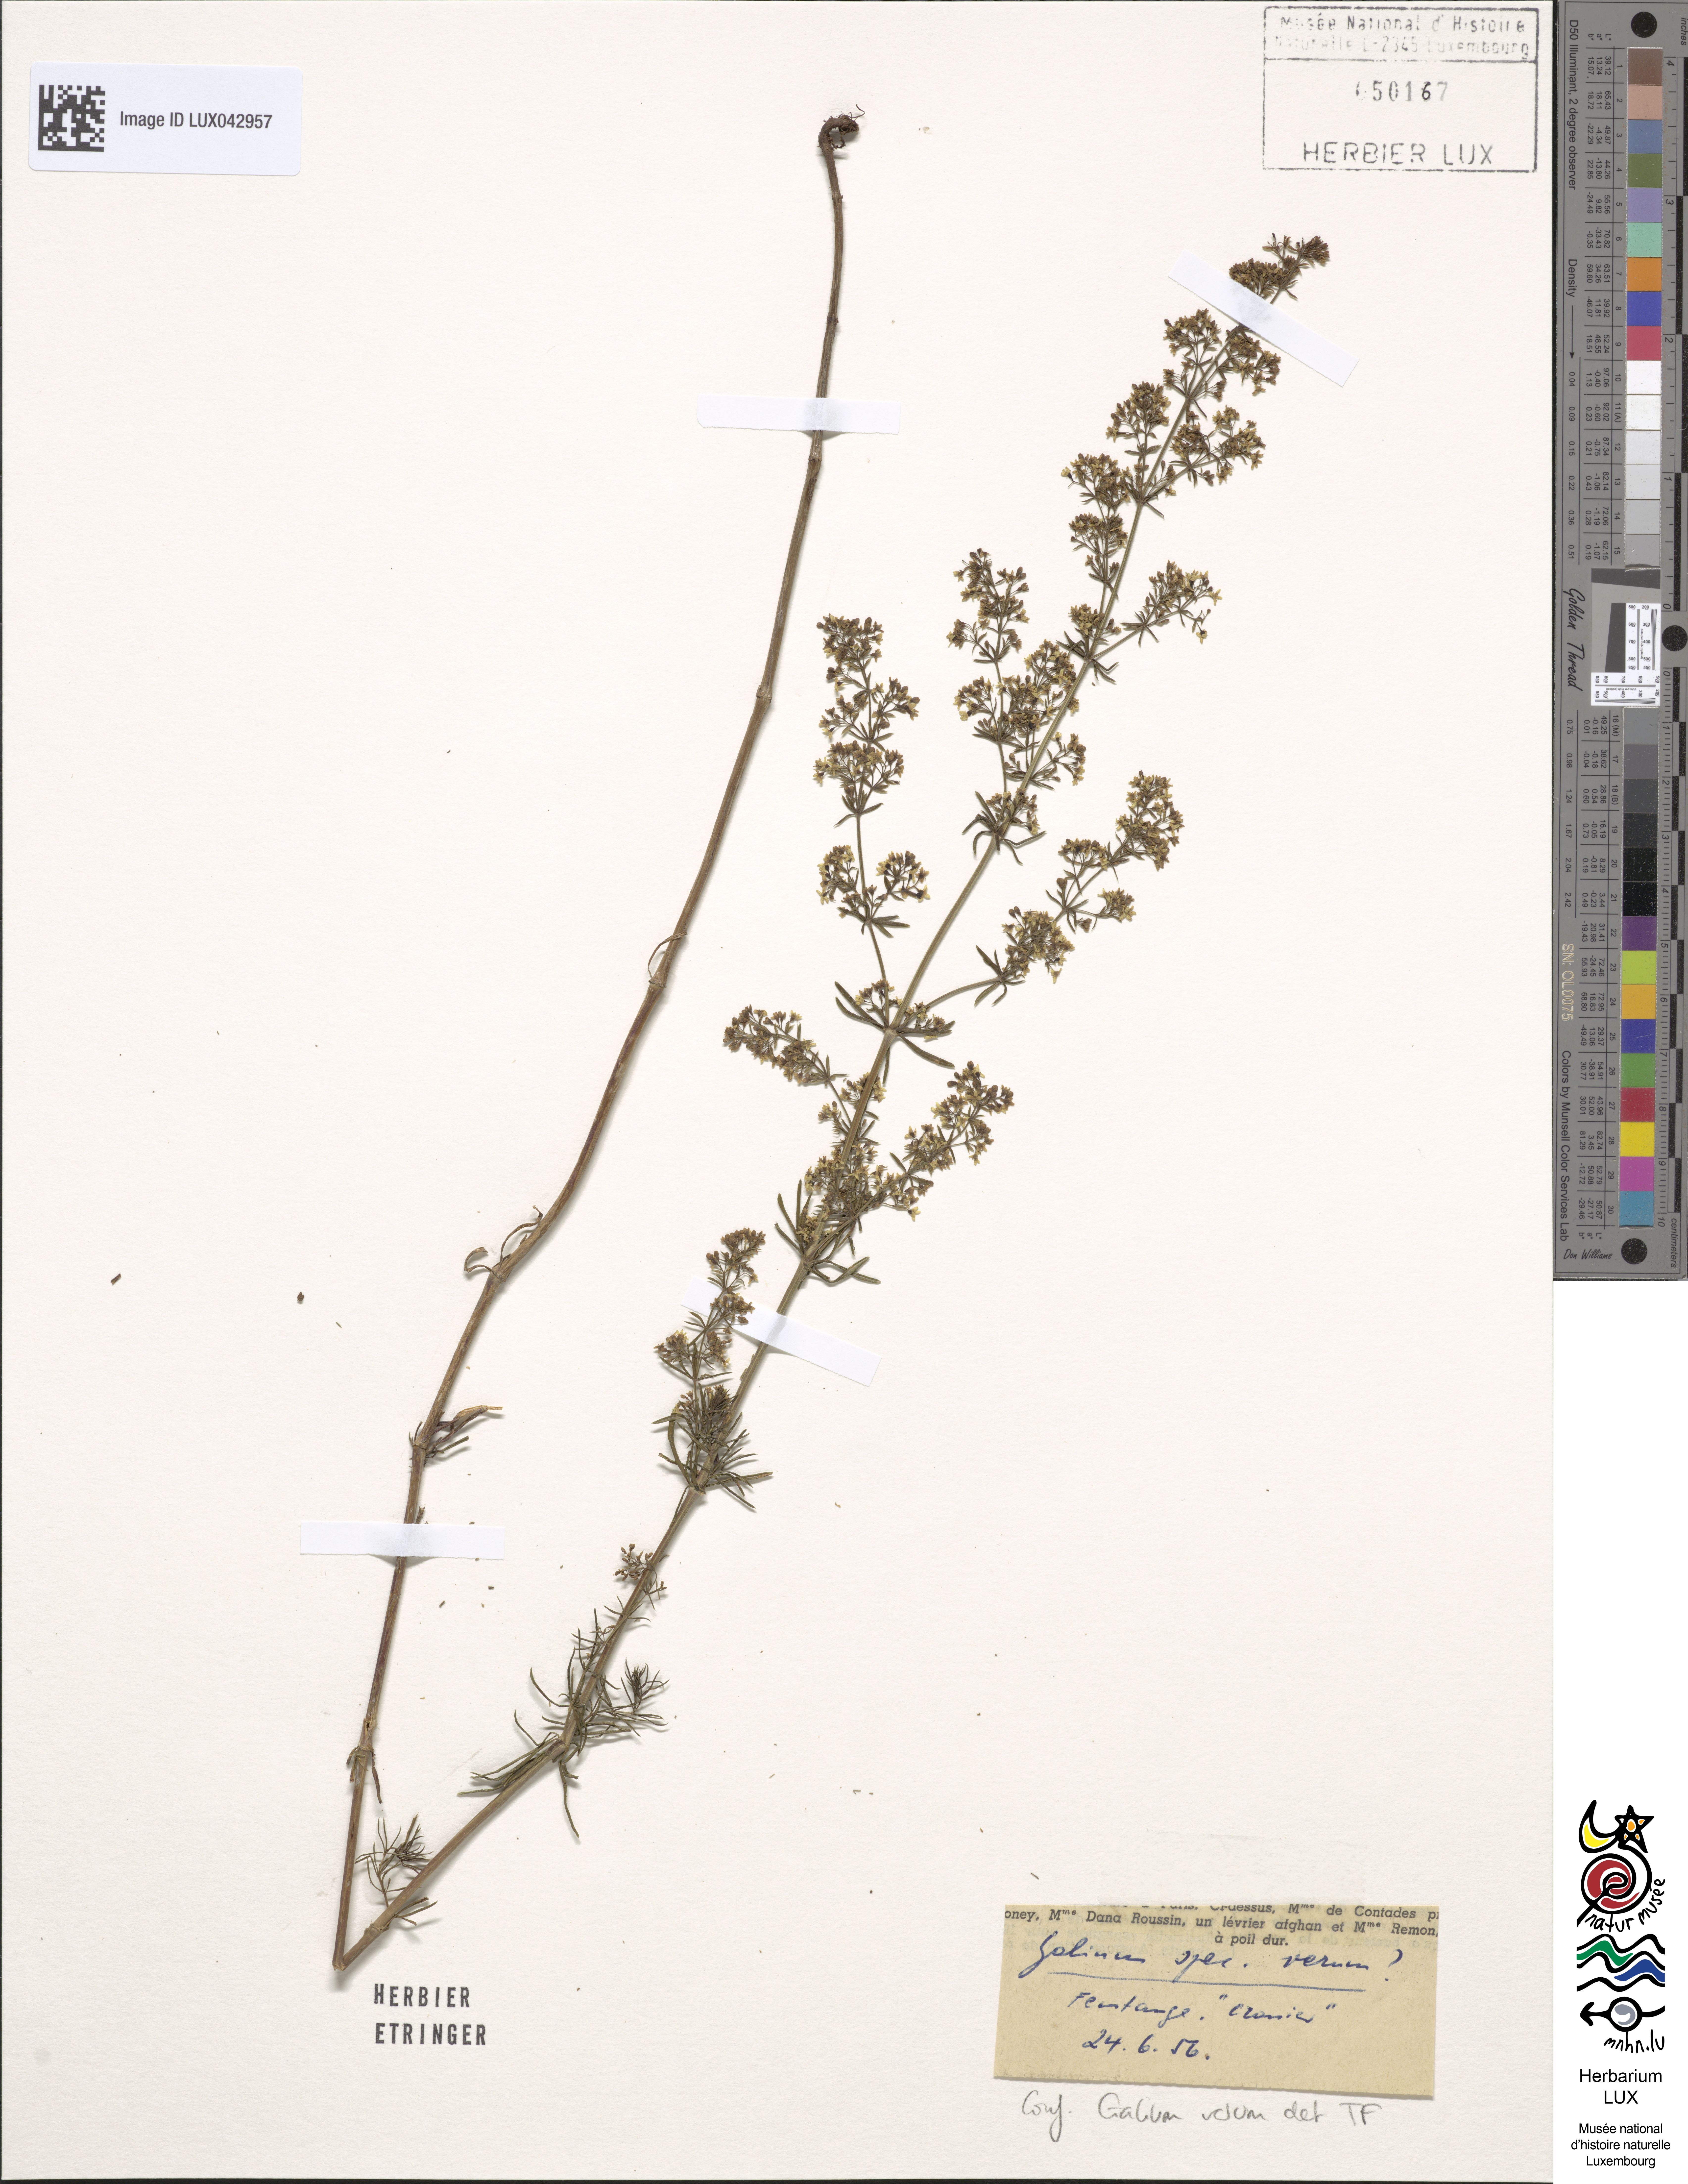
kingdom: Plantae
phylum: Tracheophyta
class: Magnoliopsida
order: Gentianales
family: Rubiaceae
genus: Galium
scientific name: Galium verum
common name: Lady's bedstraw
